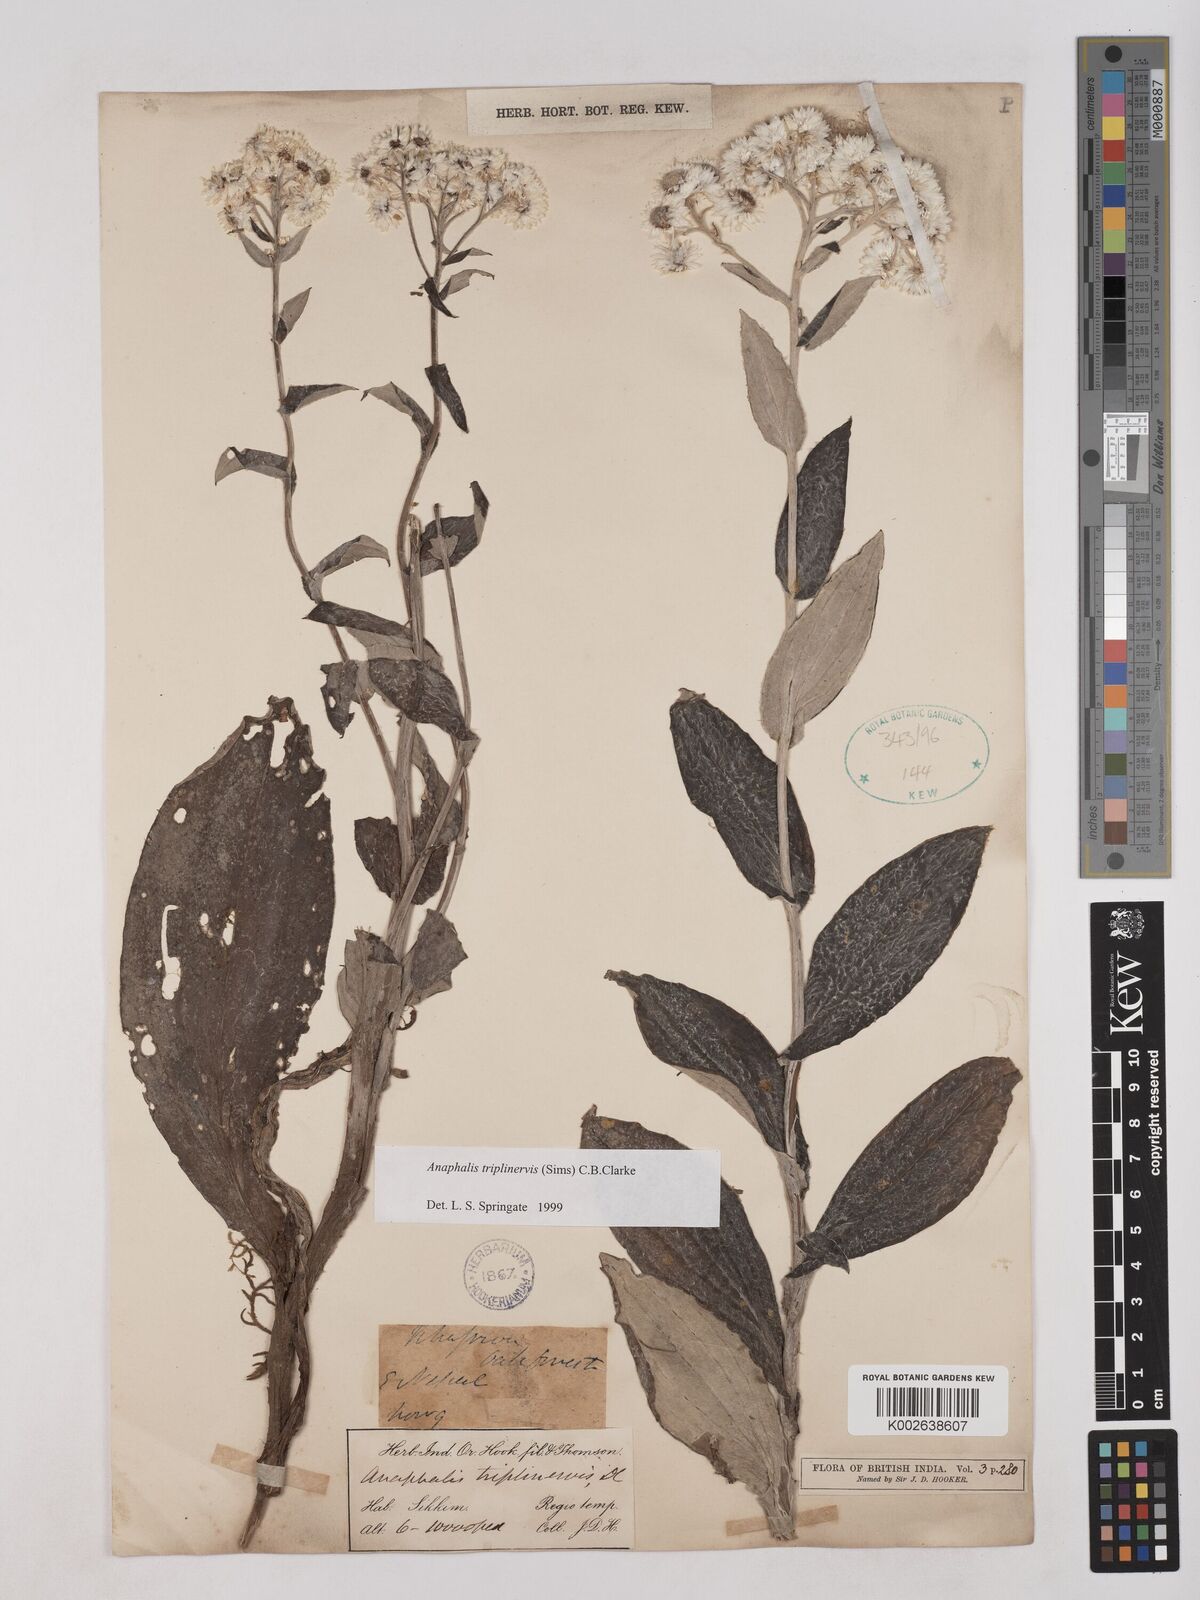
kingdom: Plantae
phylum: Tracheophyta
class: Magnoliopsida
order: Asterales
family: Asteraceae
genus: Anaphalis
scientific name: Anaphalis triplinervis
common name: Pearly everlasting
